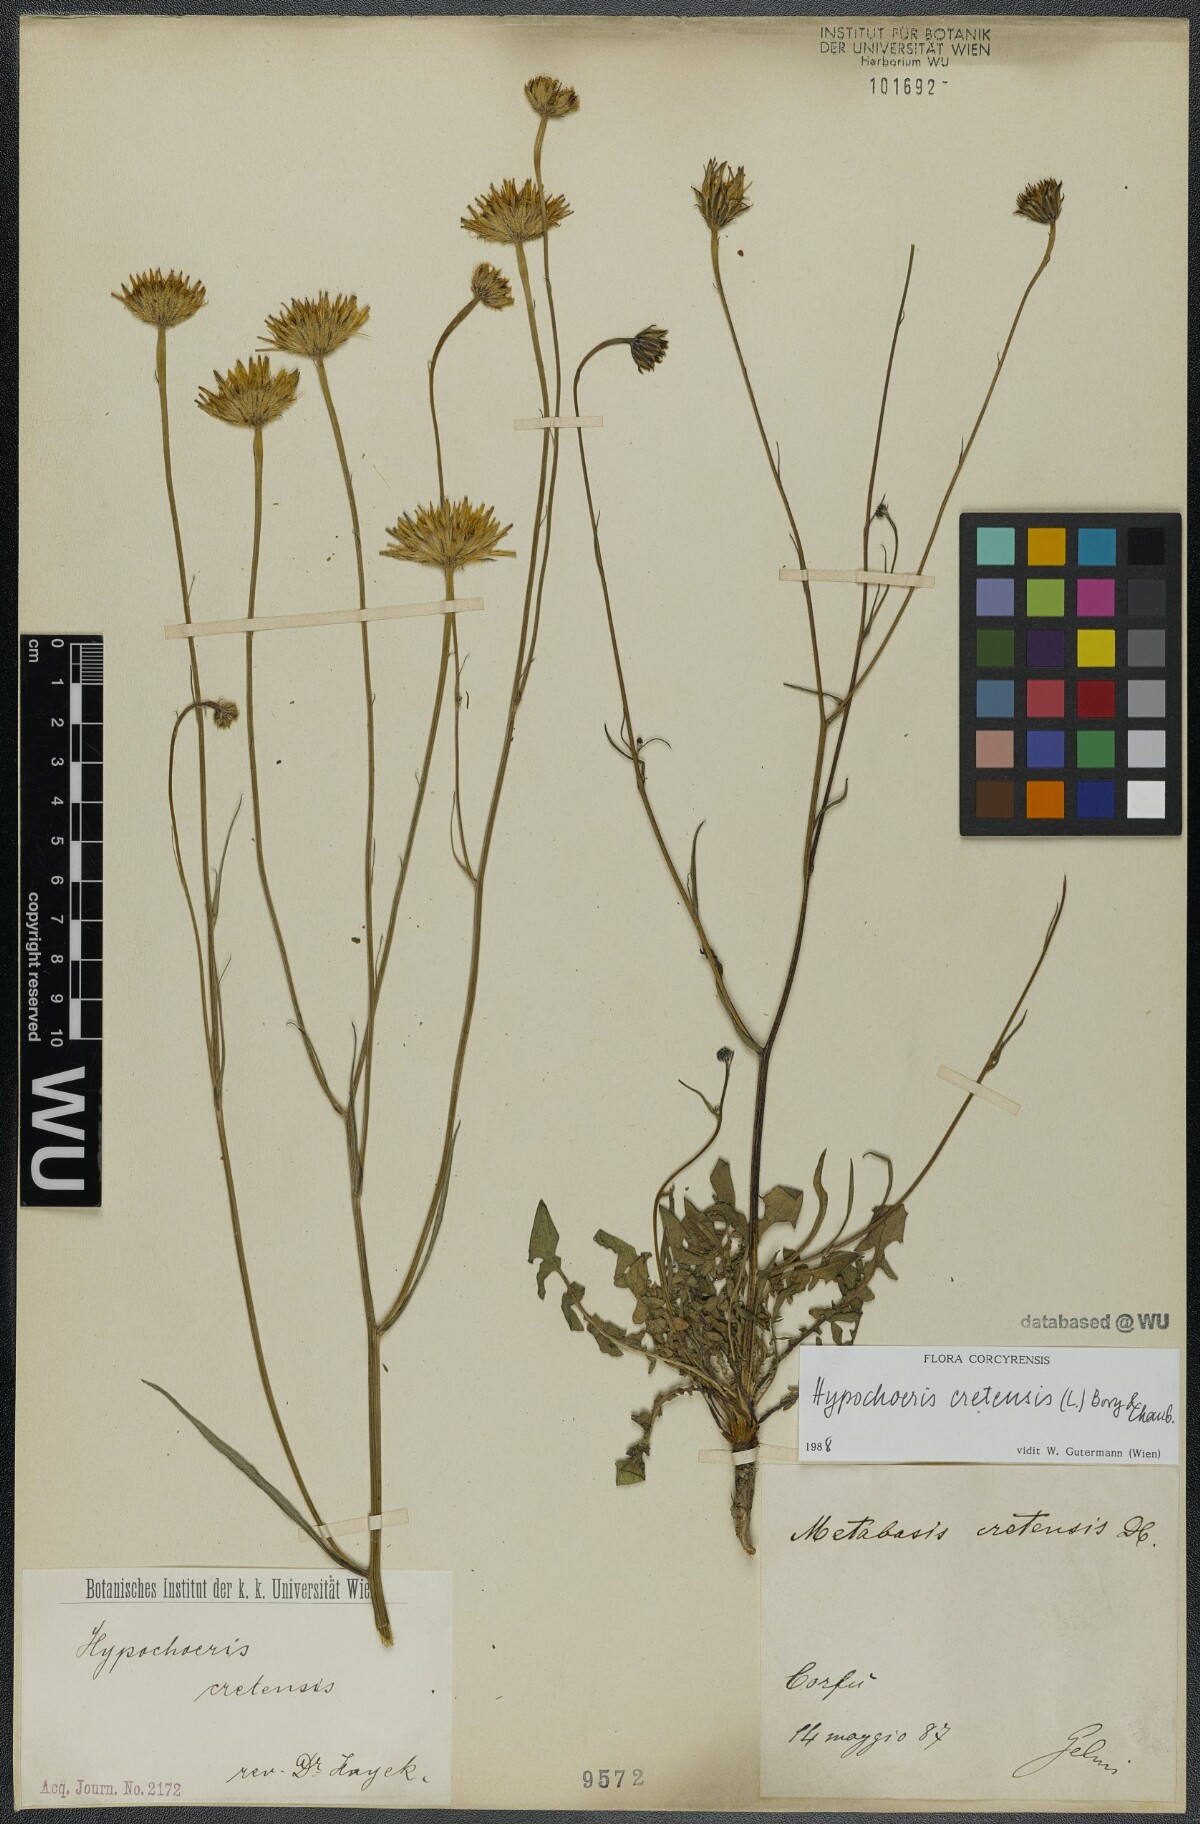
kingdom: Plantae
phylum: Tracheophyta
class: Magnoliopsida
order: Asterales
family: Asteraceae
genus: Hypochaeris
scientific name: Hypochaeris cretensis
